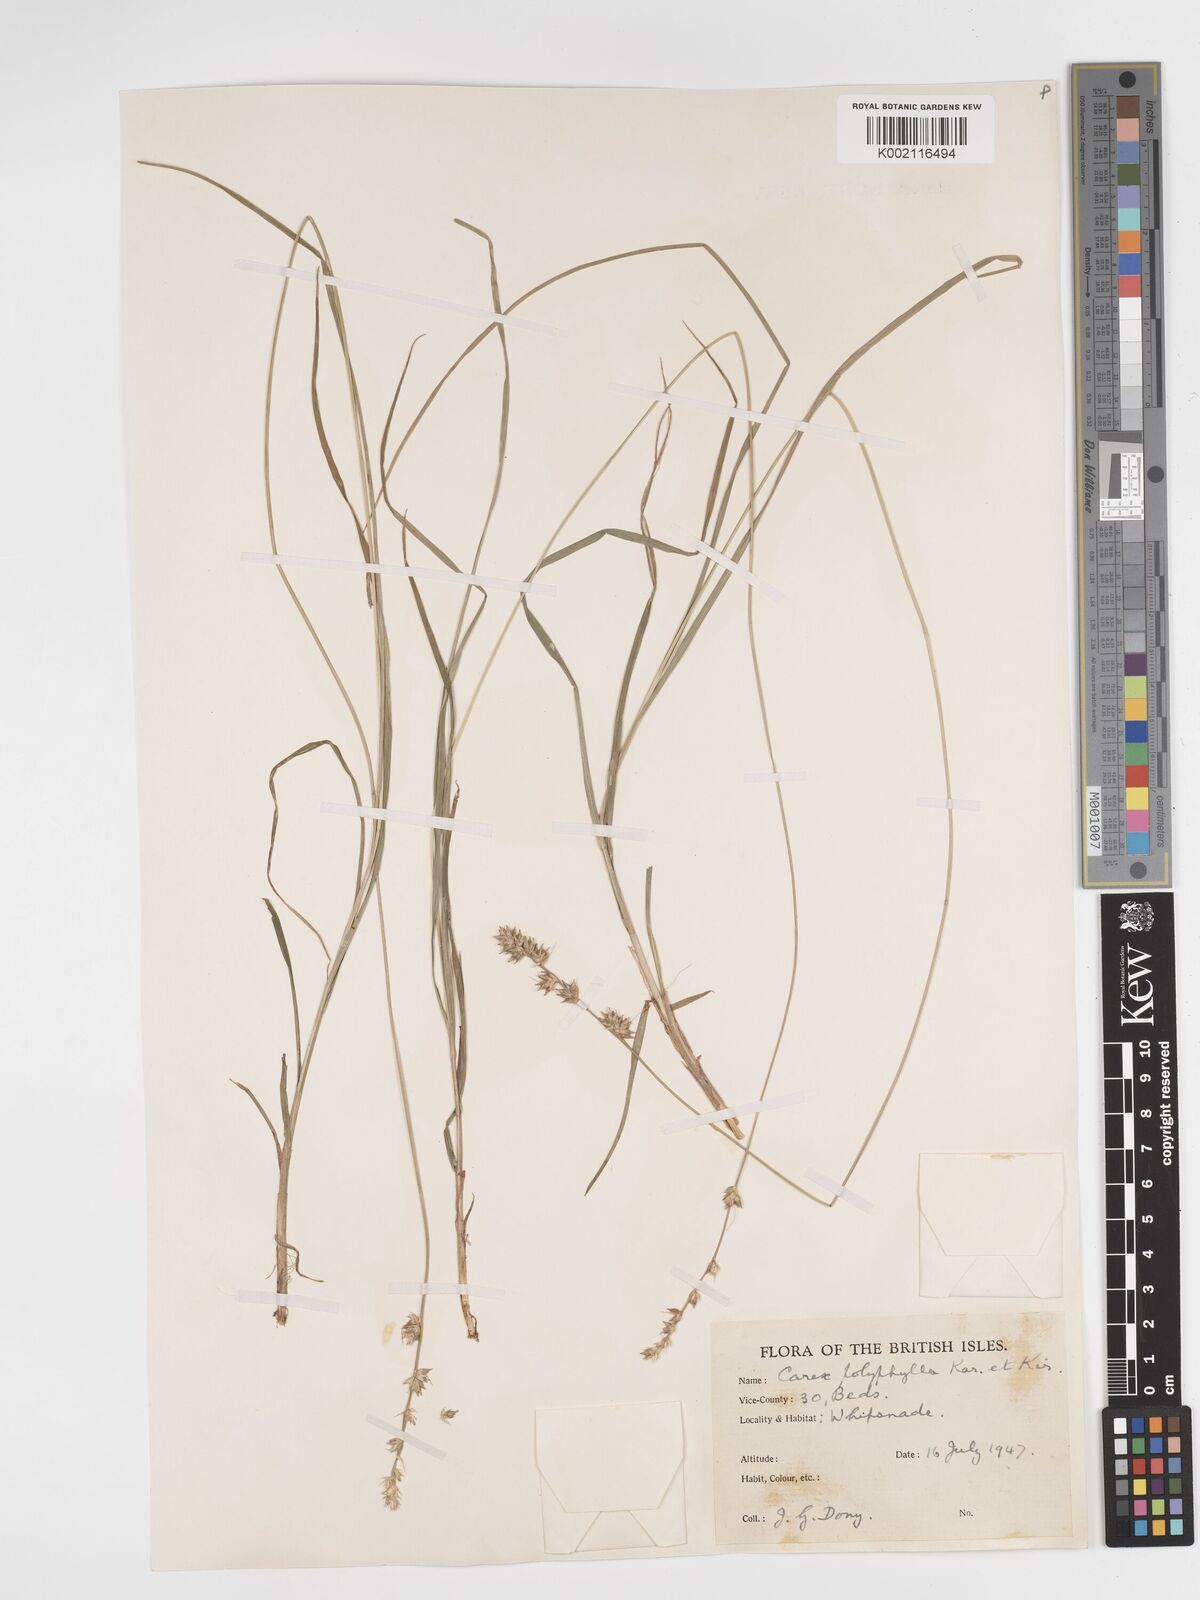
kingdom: Plantae
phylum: Tracheophyta
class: Liliopsida
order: Poales
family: Cyperaceae
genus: Carex
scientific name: Carex divulsa
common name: Grassland sedge
